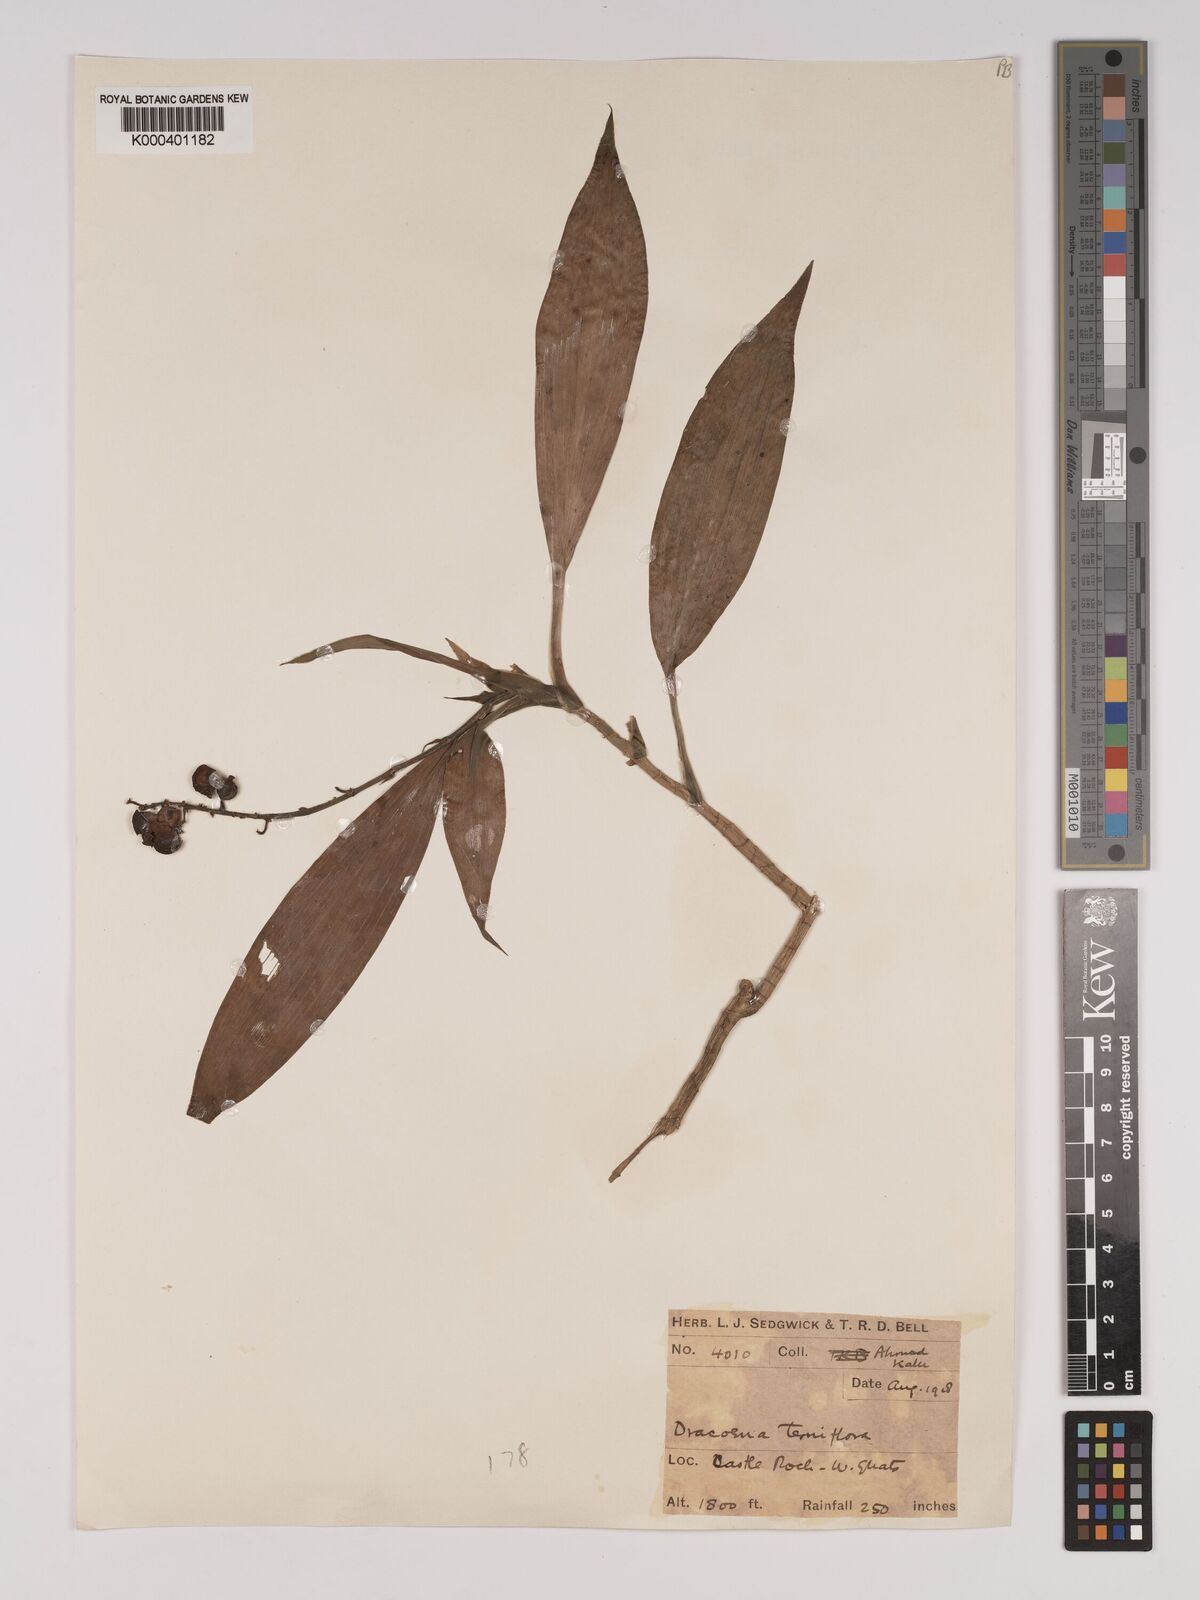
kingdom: Plantae
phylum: Tracheophyta
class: Liliopsida
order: Asparagales
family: Asparagaceae
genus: Dracaena
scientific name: Dracaena terniflora
